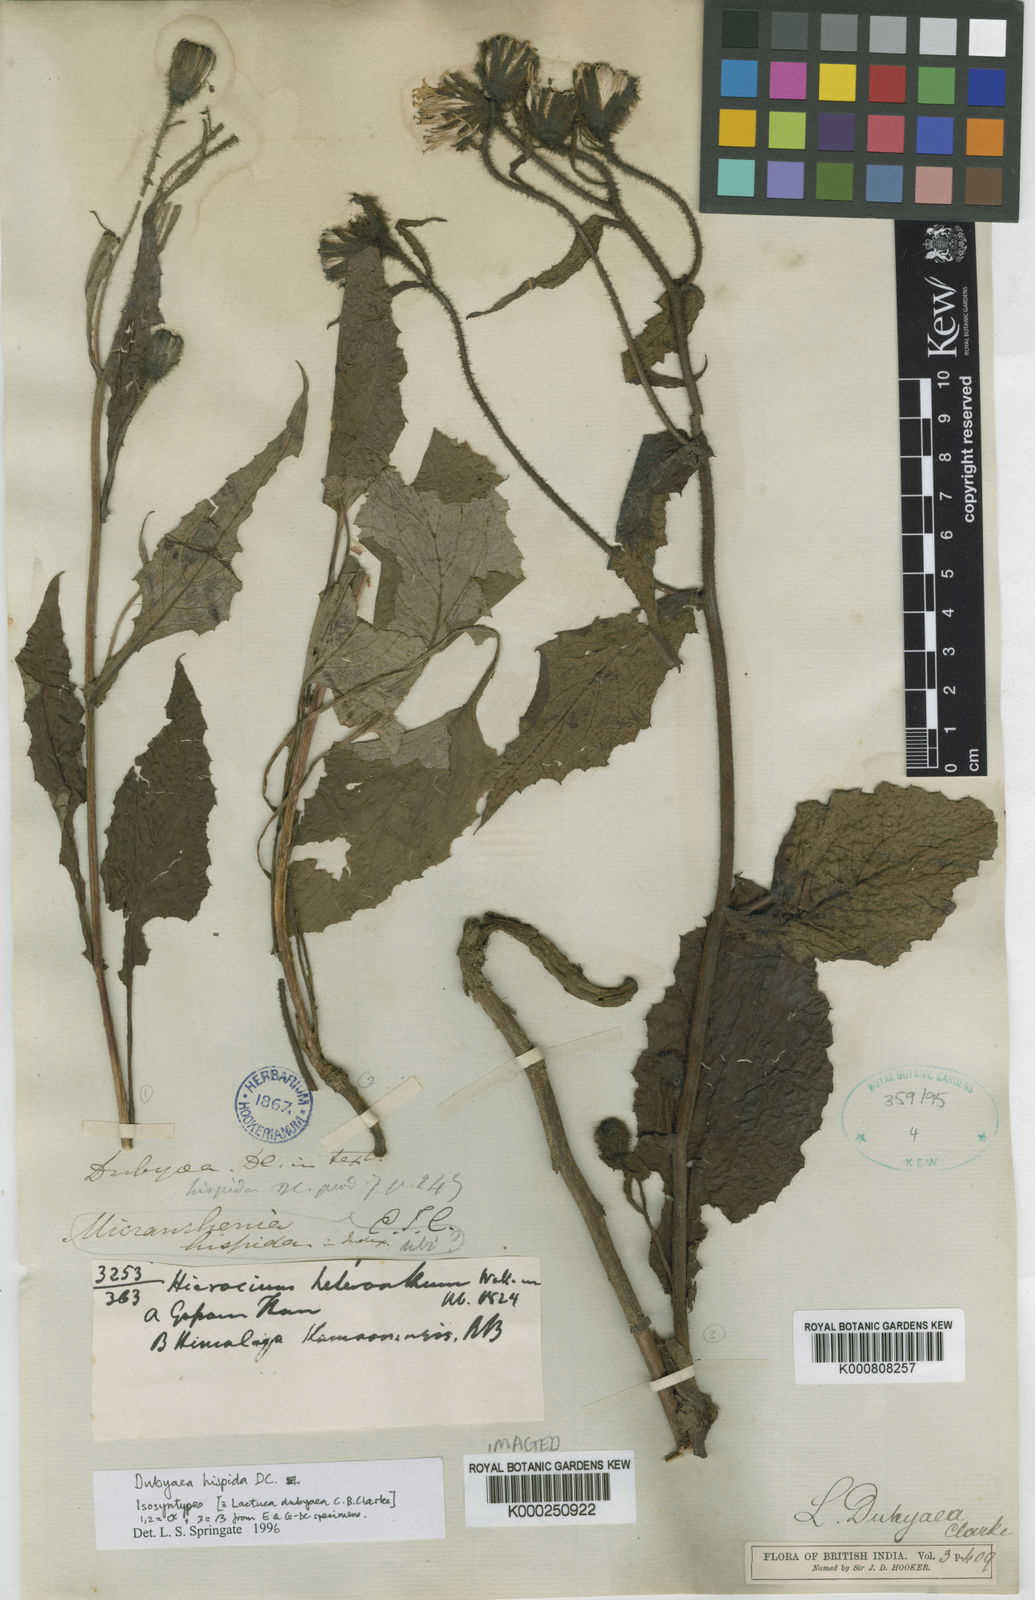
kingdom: Plantae
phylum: Tracheophyta
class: Magnoliopsida
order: Asterales
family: Asteraceae
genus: Dubyaea
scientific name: Dubyaea hispida
